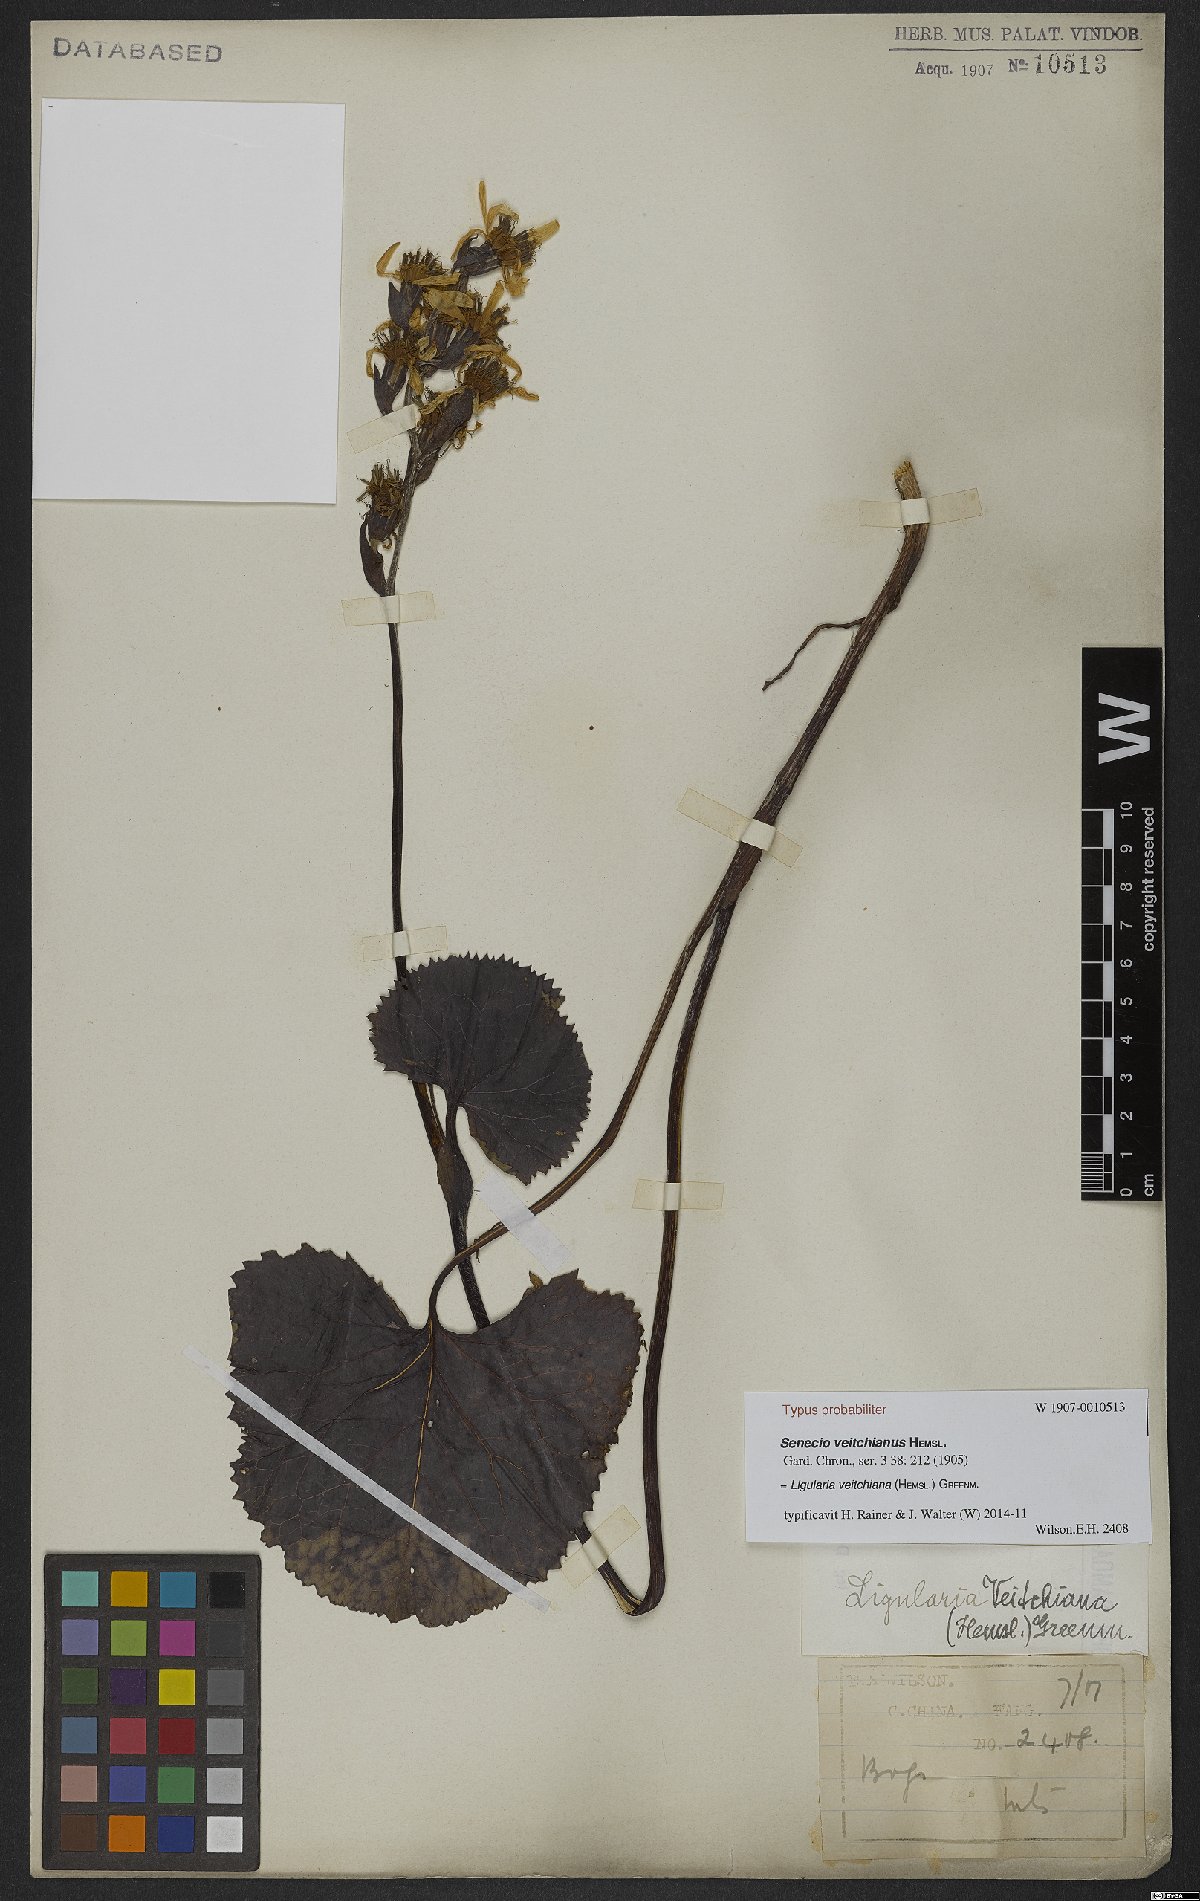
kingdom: Plantae
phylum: Tracheophyta
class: Magnoliopsida
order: Asterales
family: Asteraceae
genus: Ligularia
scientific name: Ligularia veitchiana
